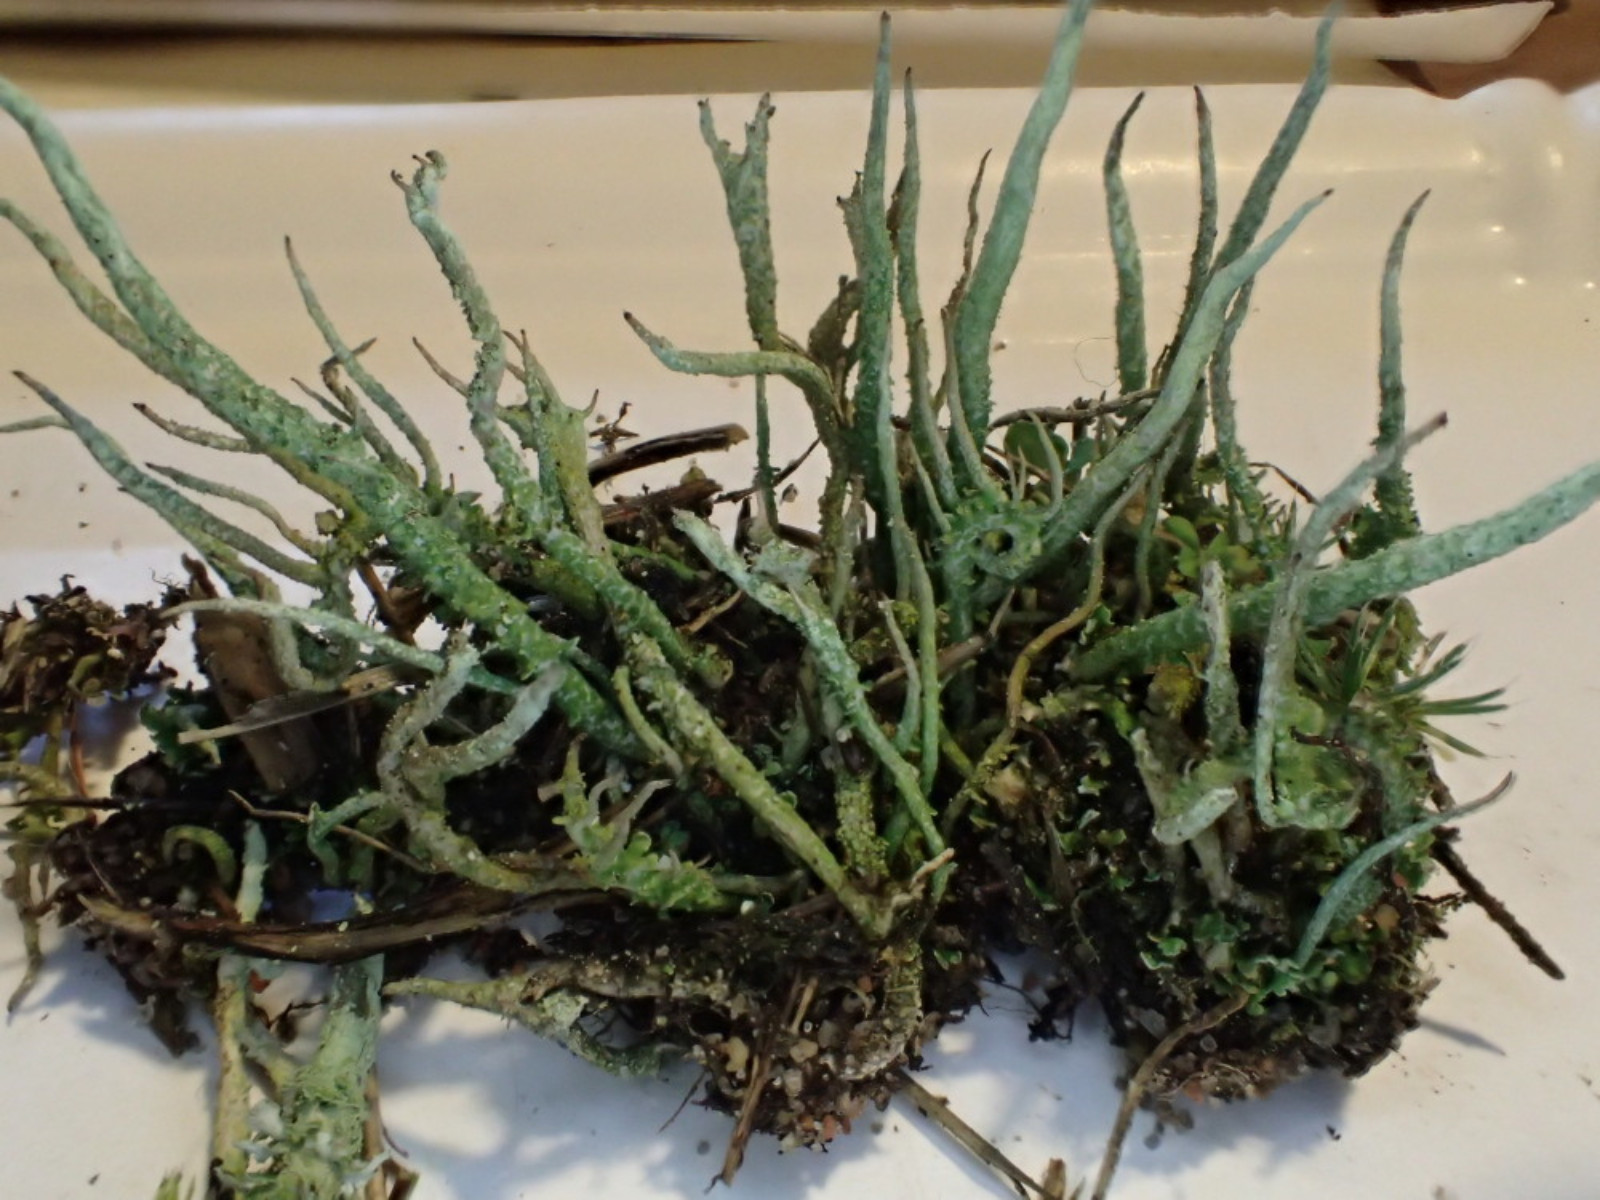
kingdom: Fungi
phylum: Ascomycota
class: Lecanoromycetes
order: Lecanorales
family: Cladoniaceae
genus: Cladonia
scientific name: Cladonia glauca
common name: grågrøn bægerlav
